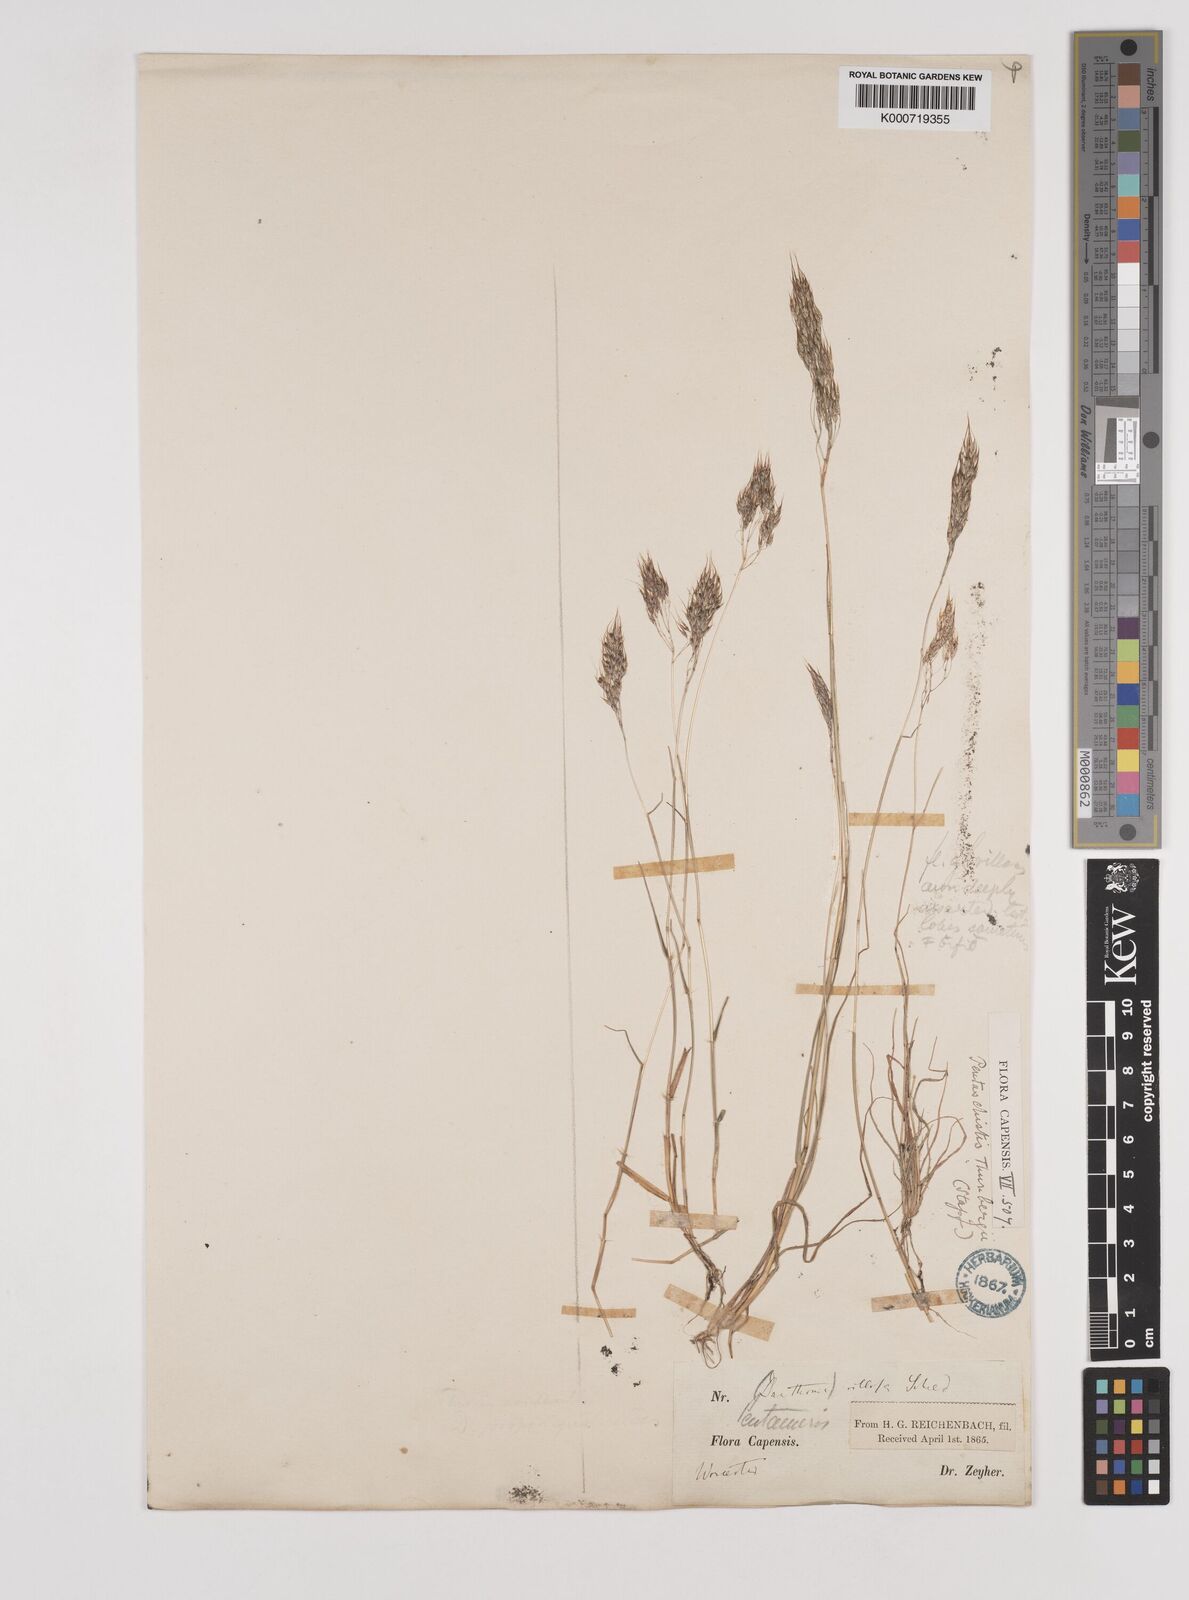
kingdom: Plantae
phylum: Tracheophyta
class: Liliopsida
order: Poales
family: Poaceae
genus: Pentameris
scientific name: Pentameris triseta
